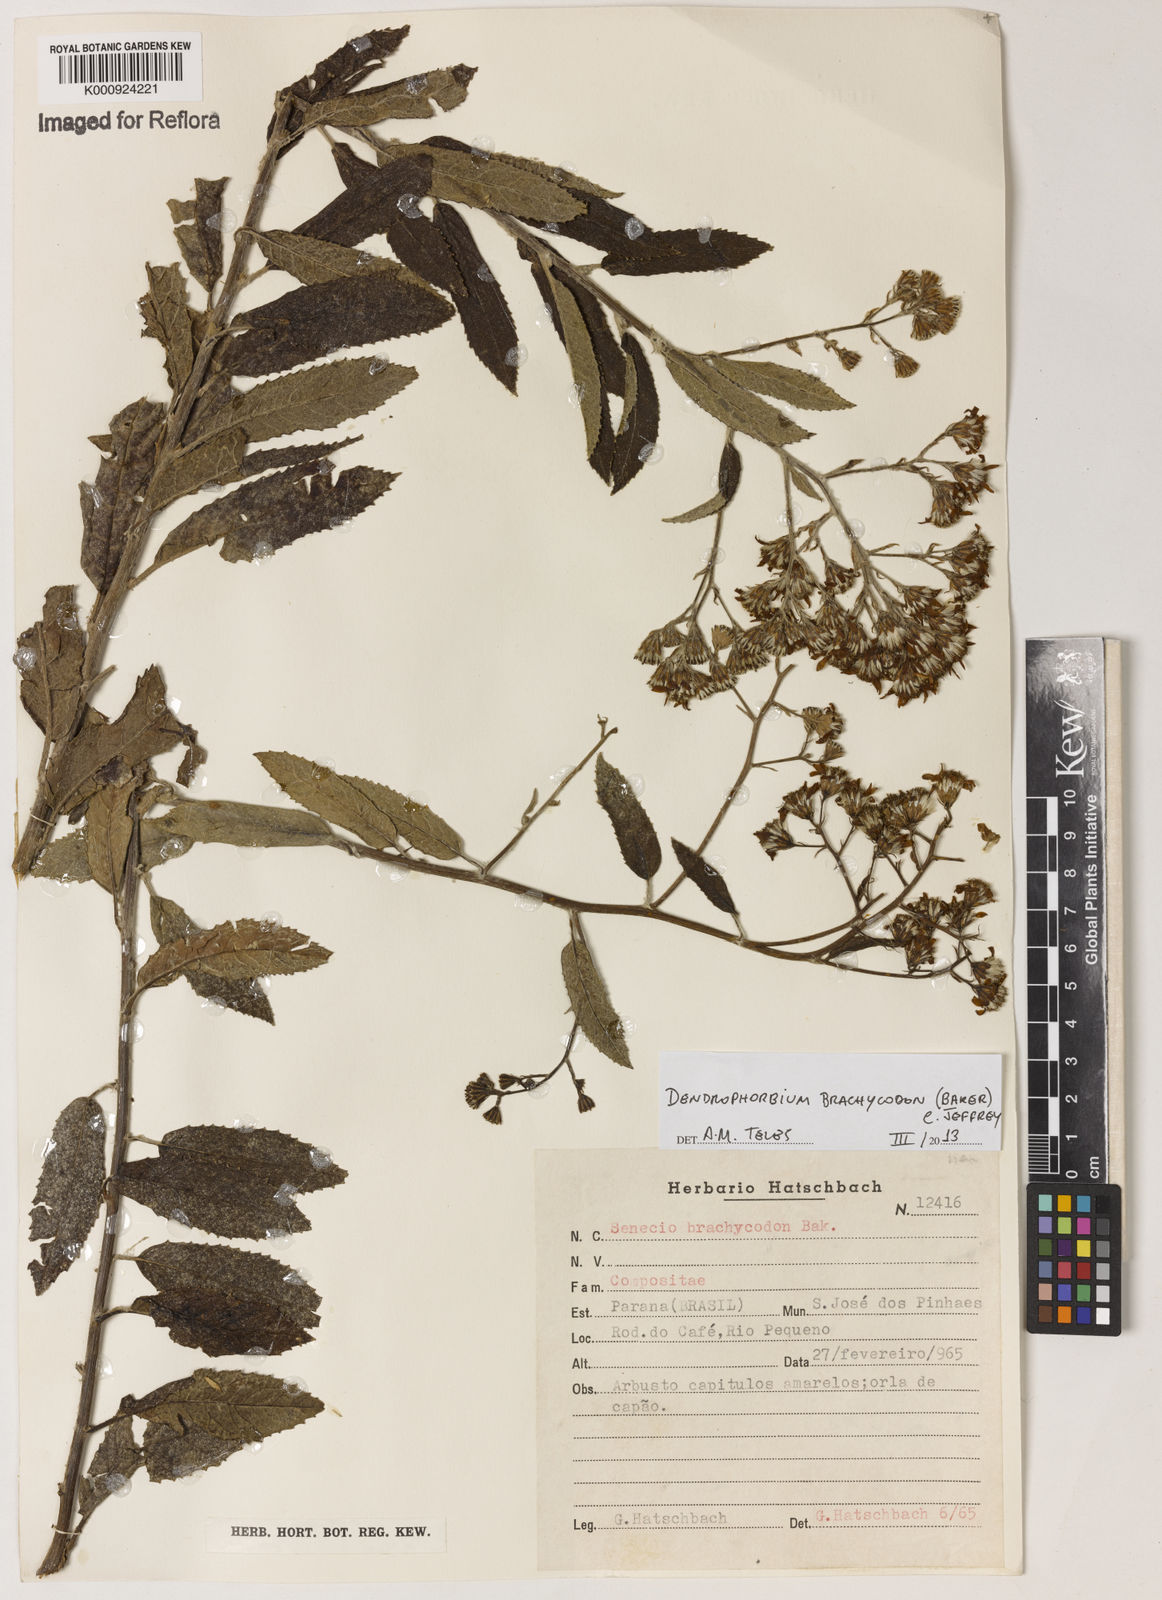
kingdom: Plantae
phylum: Tracheophyta
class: Magnoliopsida
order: Asterales
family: Asteraceae
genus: Dendrophorbium
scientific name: Dendrophorbium brachycodon
